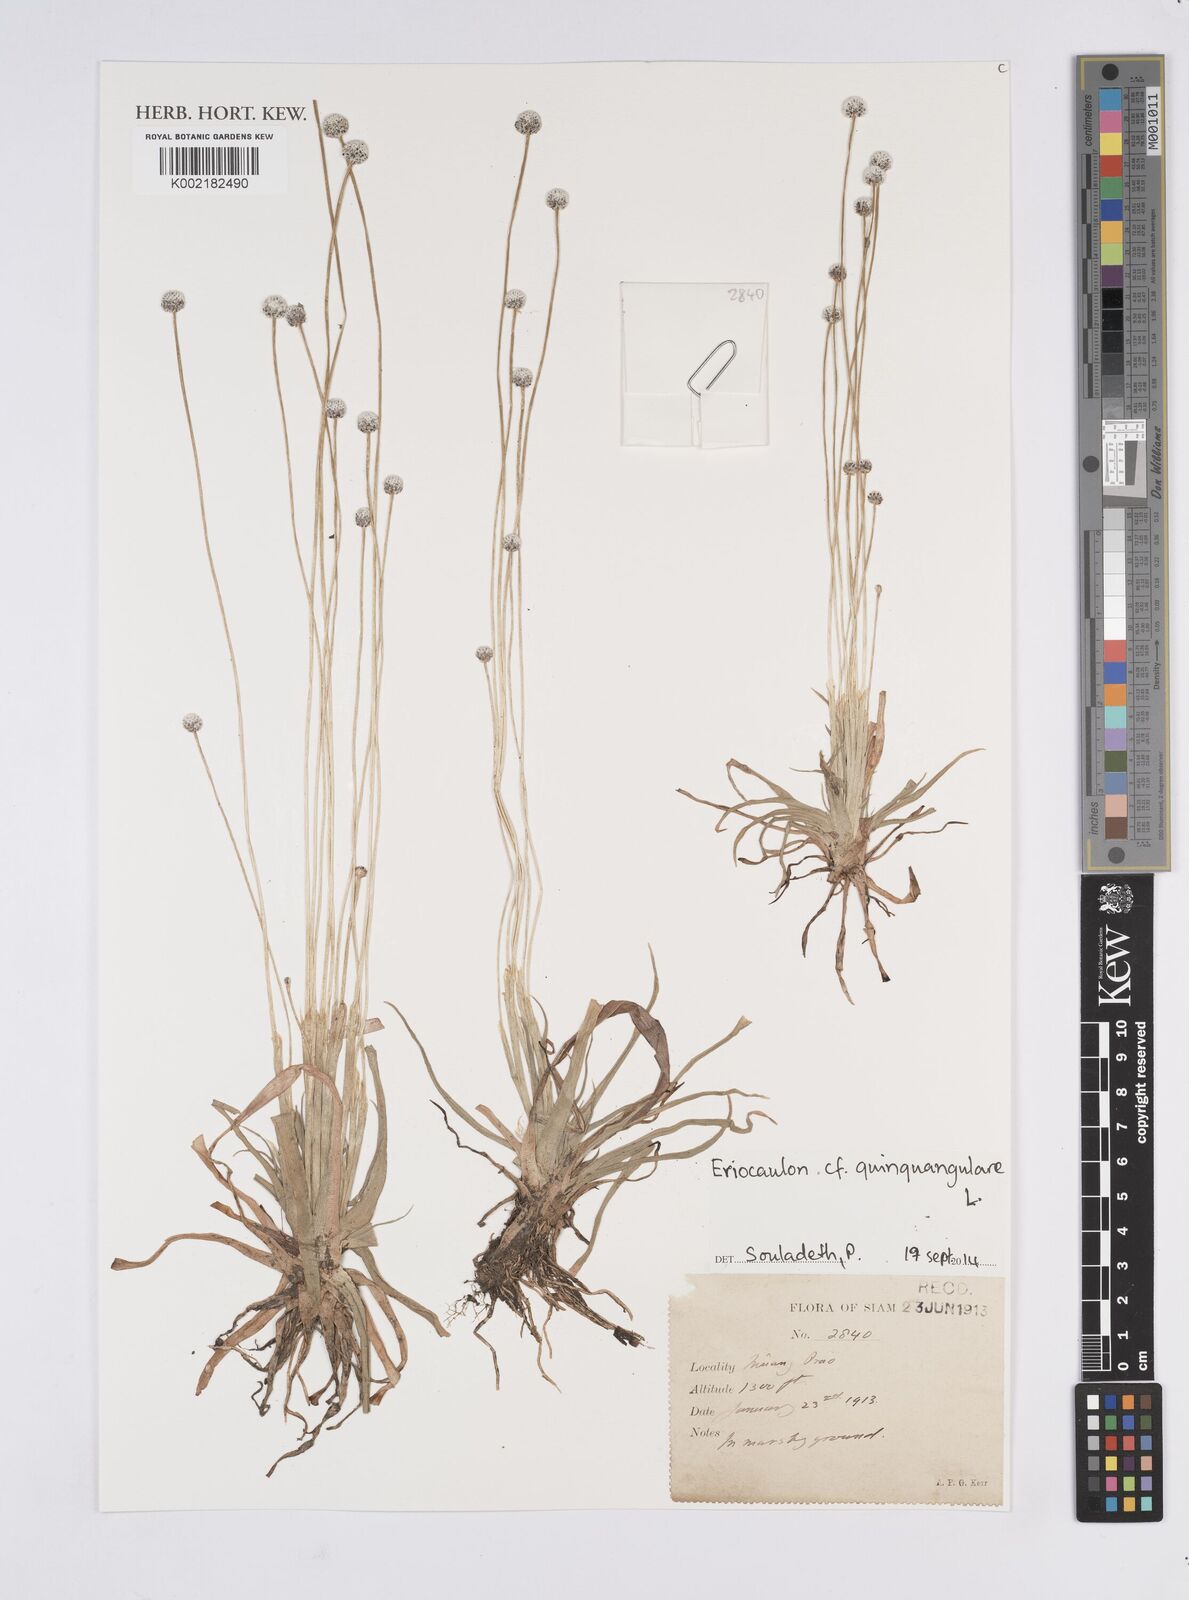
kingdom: Plantae
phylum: Tracheophyta
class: Liliopsida
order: Poales
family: Eriocaulaceae
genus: Eriocaulon
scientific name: Eriocaulon quinquangulare
